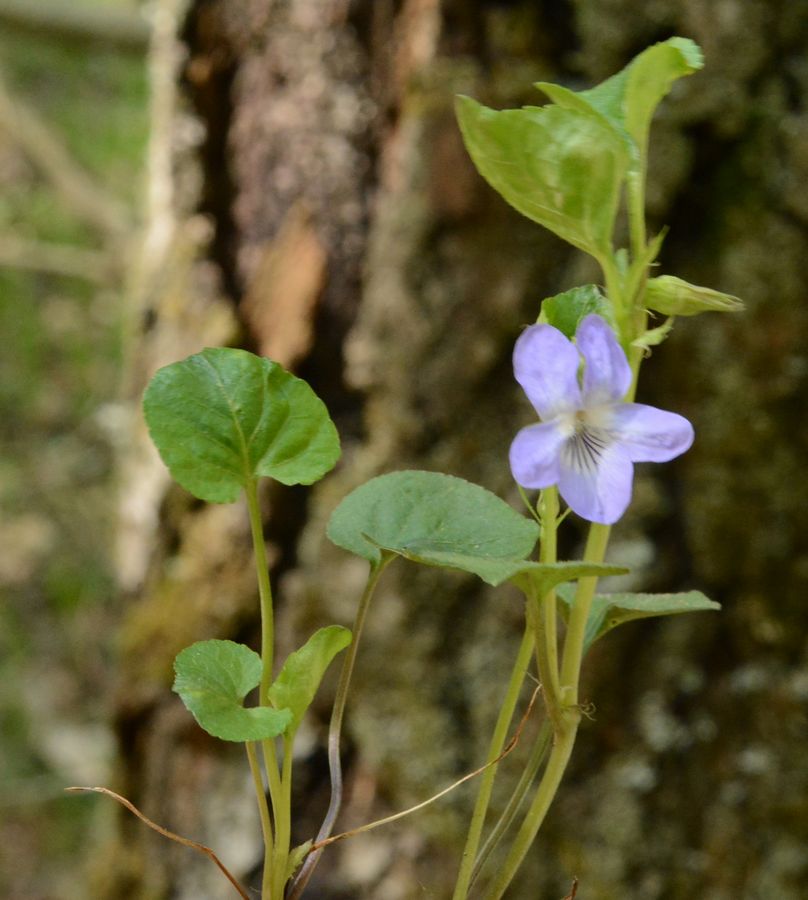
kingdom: Plantae
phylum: Tracheophyta
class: Magnoliopsida
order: Malpighiales
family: Violaceae
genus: Viola
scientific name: Viola rupestris
